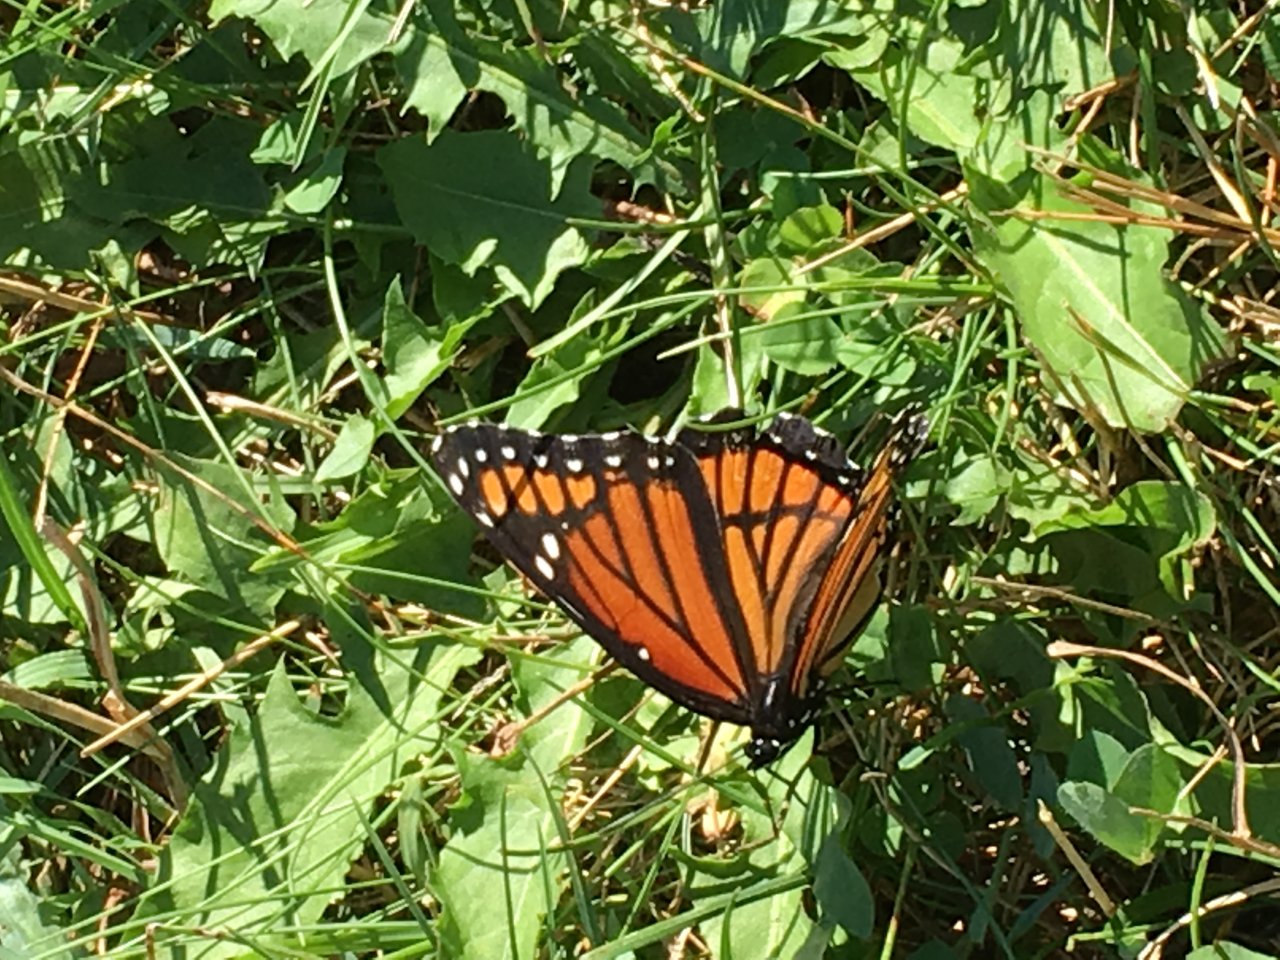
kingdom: Animalia
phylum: Arthropoda
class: Insecta
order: Lepidoptera
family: Nymphalidae
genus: Limenitis
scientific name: Limenitis archippus
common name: Viceroy
